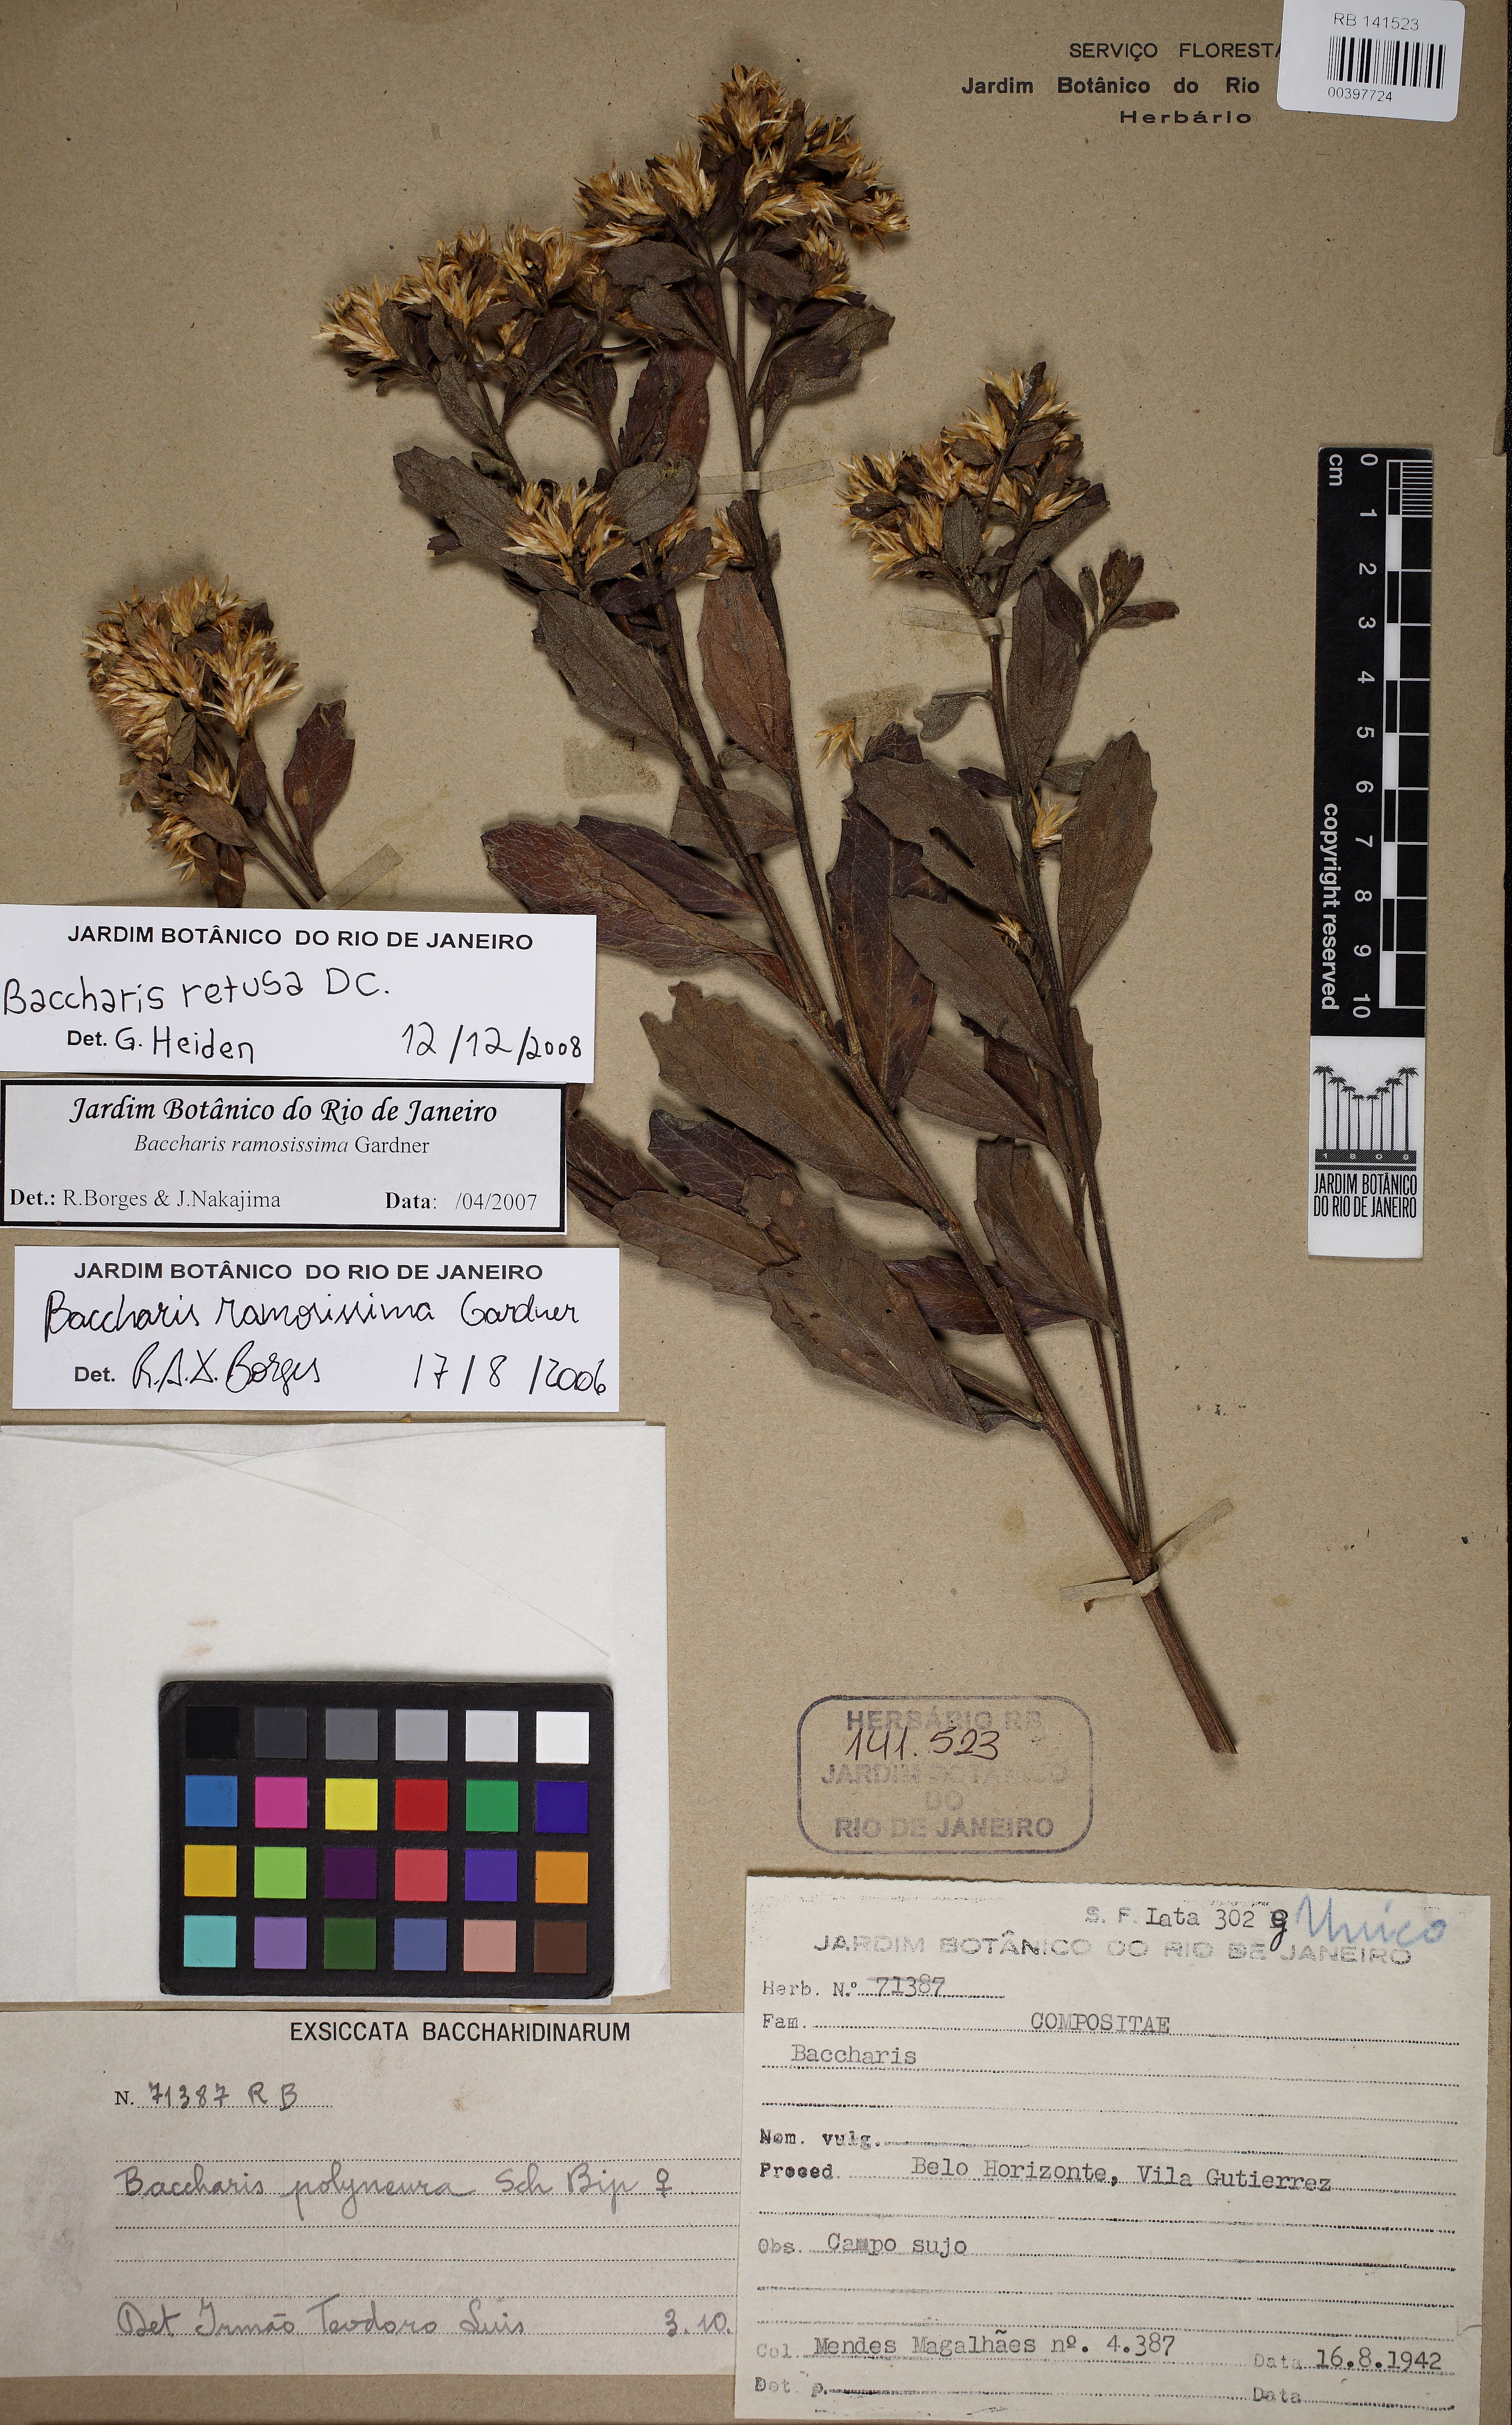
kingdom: Plantae
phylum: Tracheophyta
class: Magnoliopsida
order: Asterales
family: Asteraceae
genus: Baccharis
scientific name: Baccharis retusa
